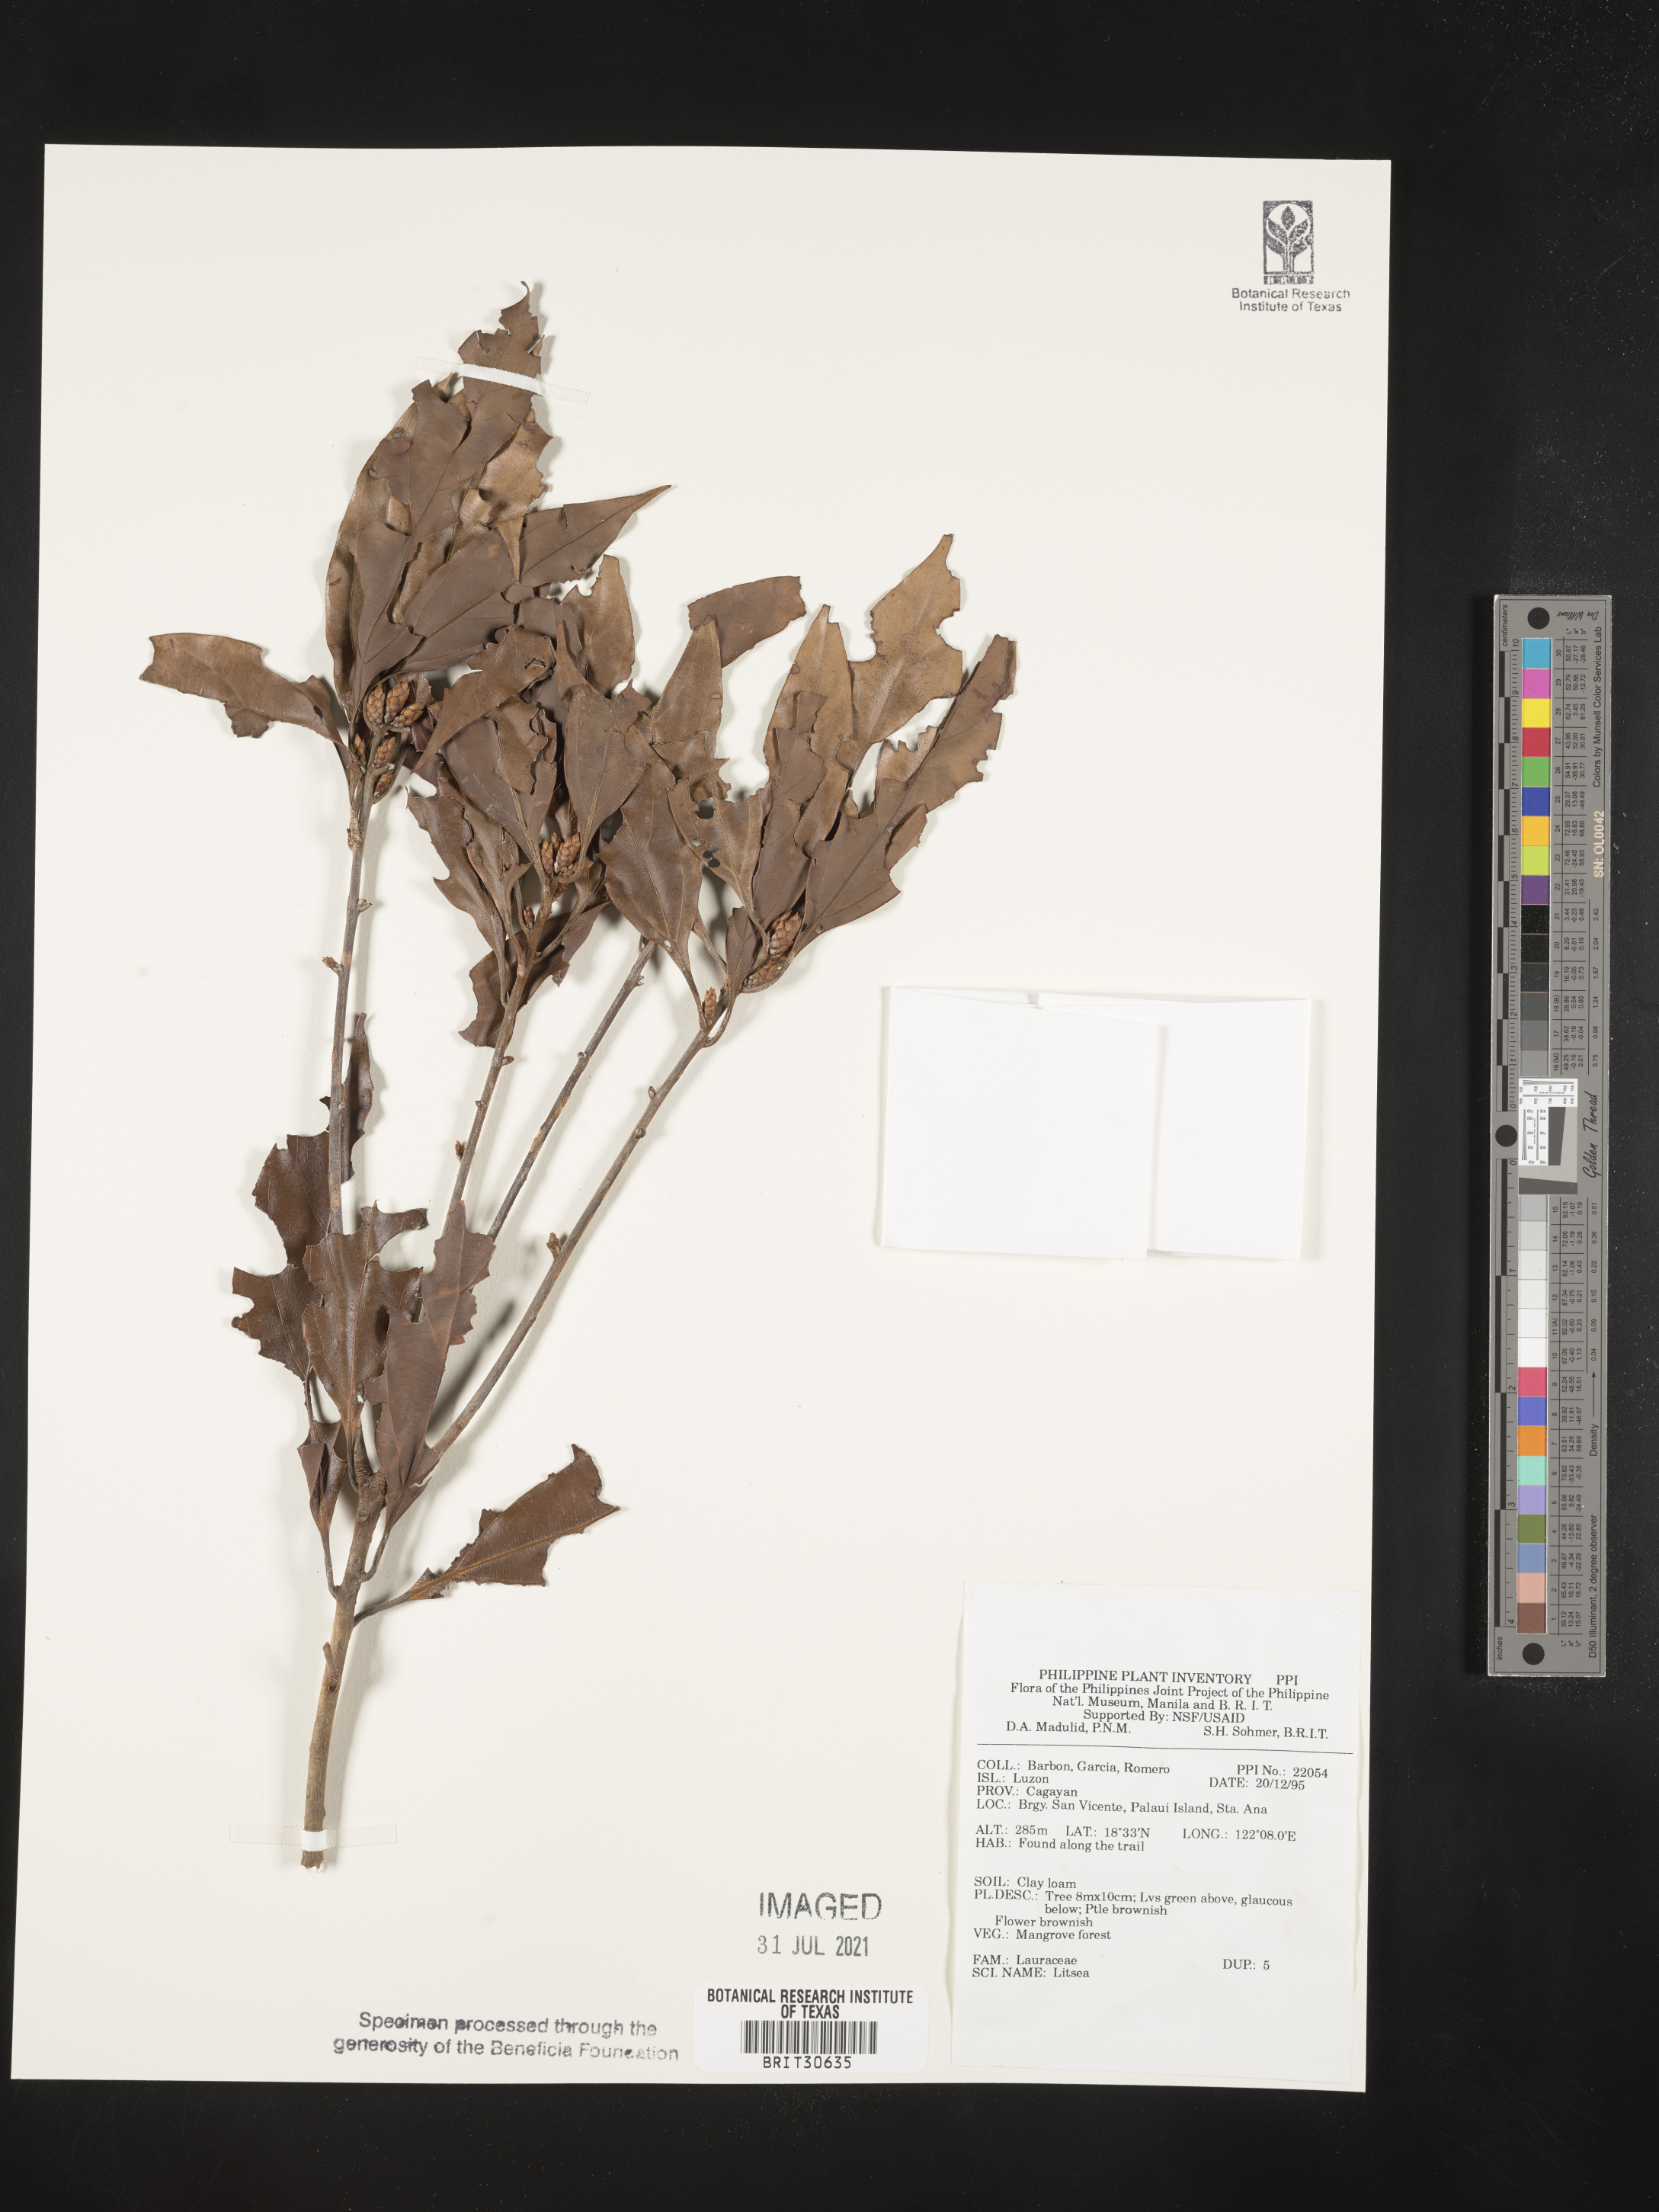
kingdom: Plantae
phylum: Tracheophyta
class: Magnoliopsida
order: Laurales
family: Lauraceae
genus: Litsea
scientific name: Litsea
